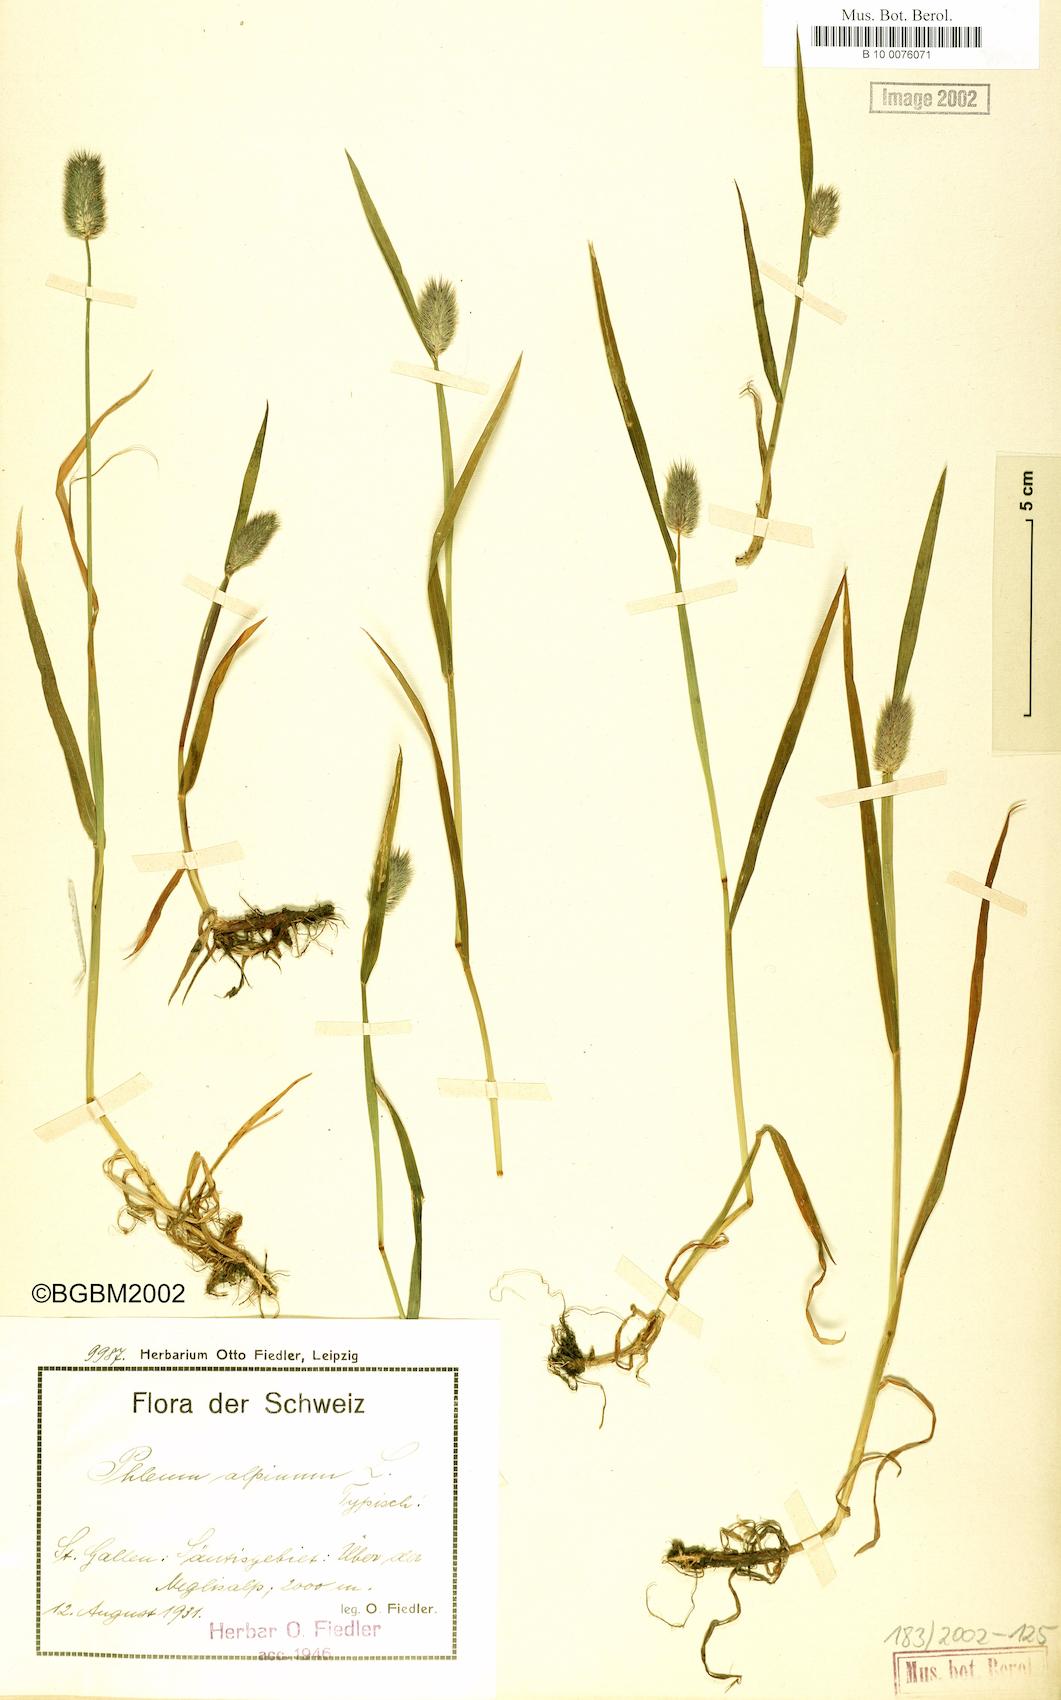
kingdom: Plantae
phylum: Tracheophyta
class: Liliopsida
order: Poales
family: Poaceae
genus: Phleum
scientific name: Phleum alpinum
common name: Alpine cat's-tail
